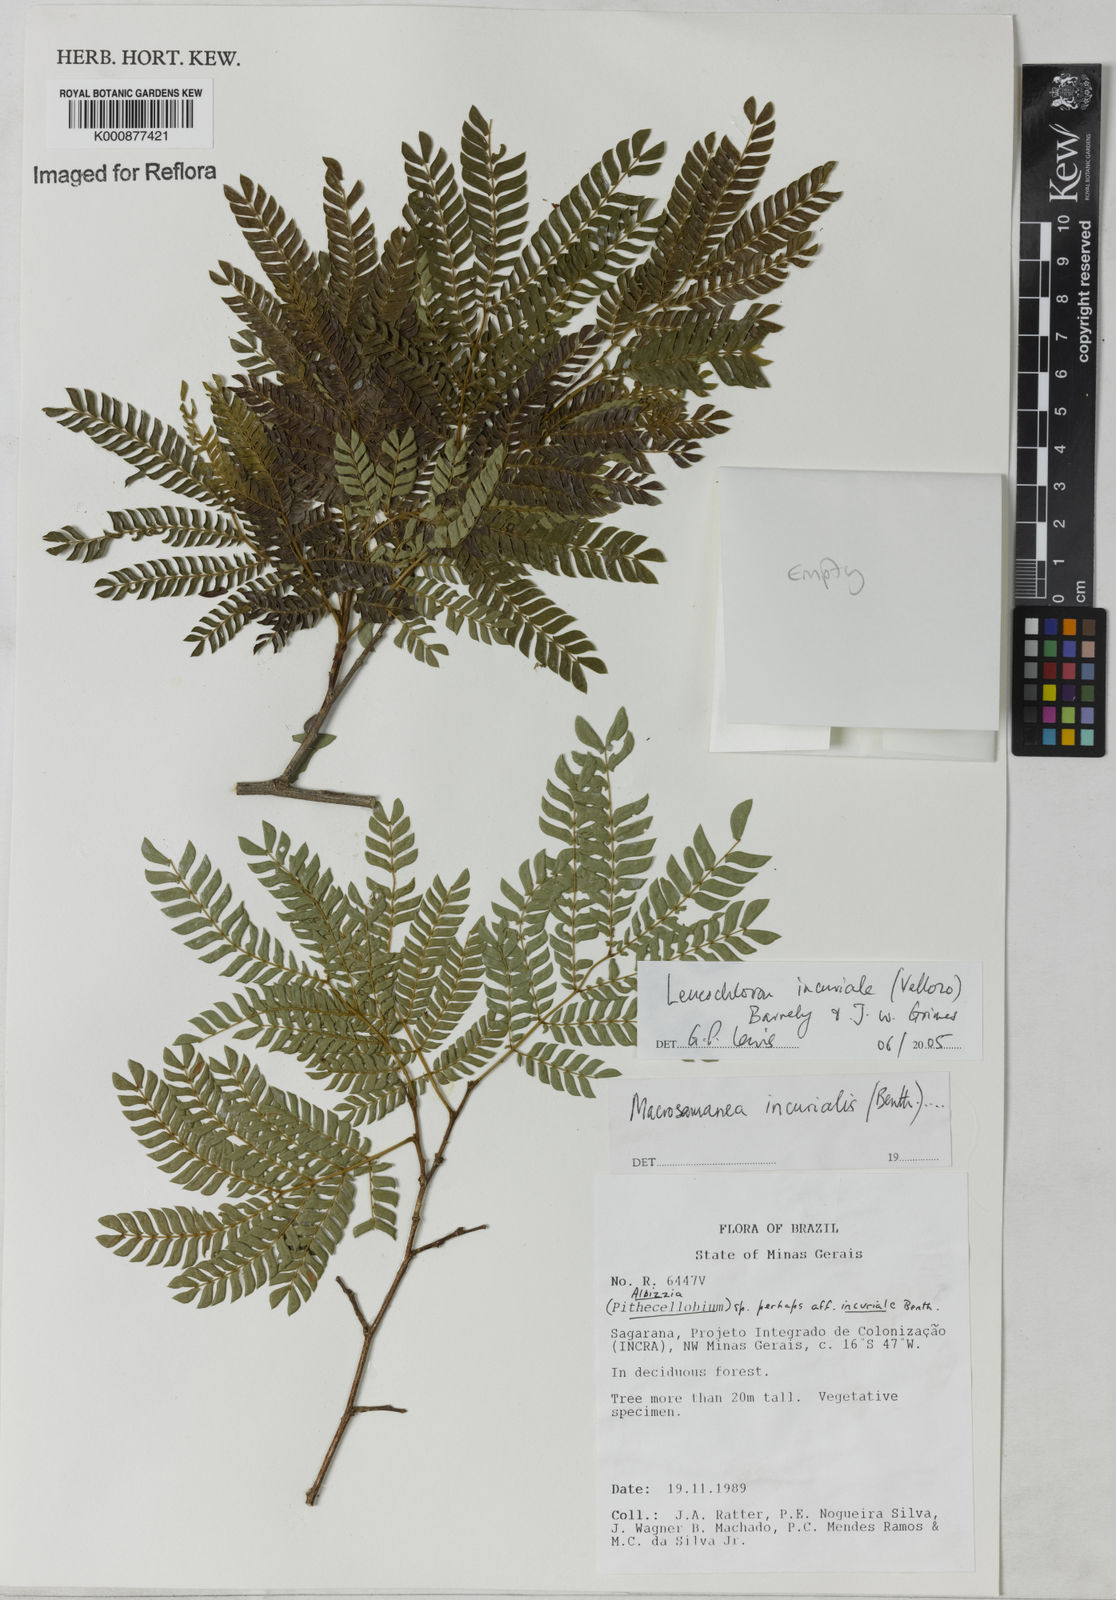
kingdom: Plantae
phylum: Tracheophyta
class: Magnoliopsida
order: Fabales
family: Fabaceae
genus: Leucochloron
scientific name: Leucochloron incuriale
